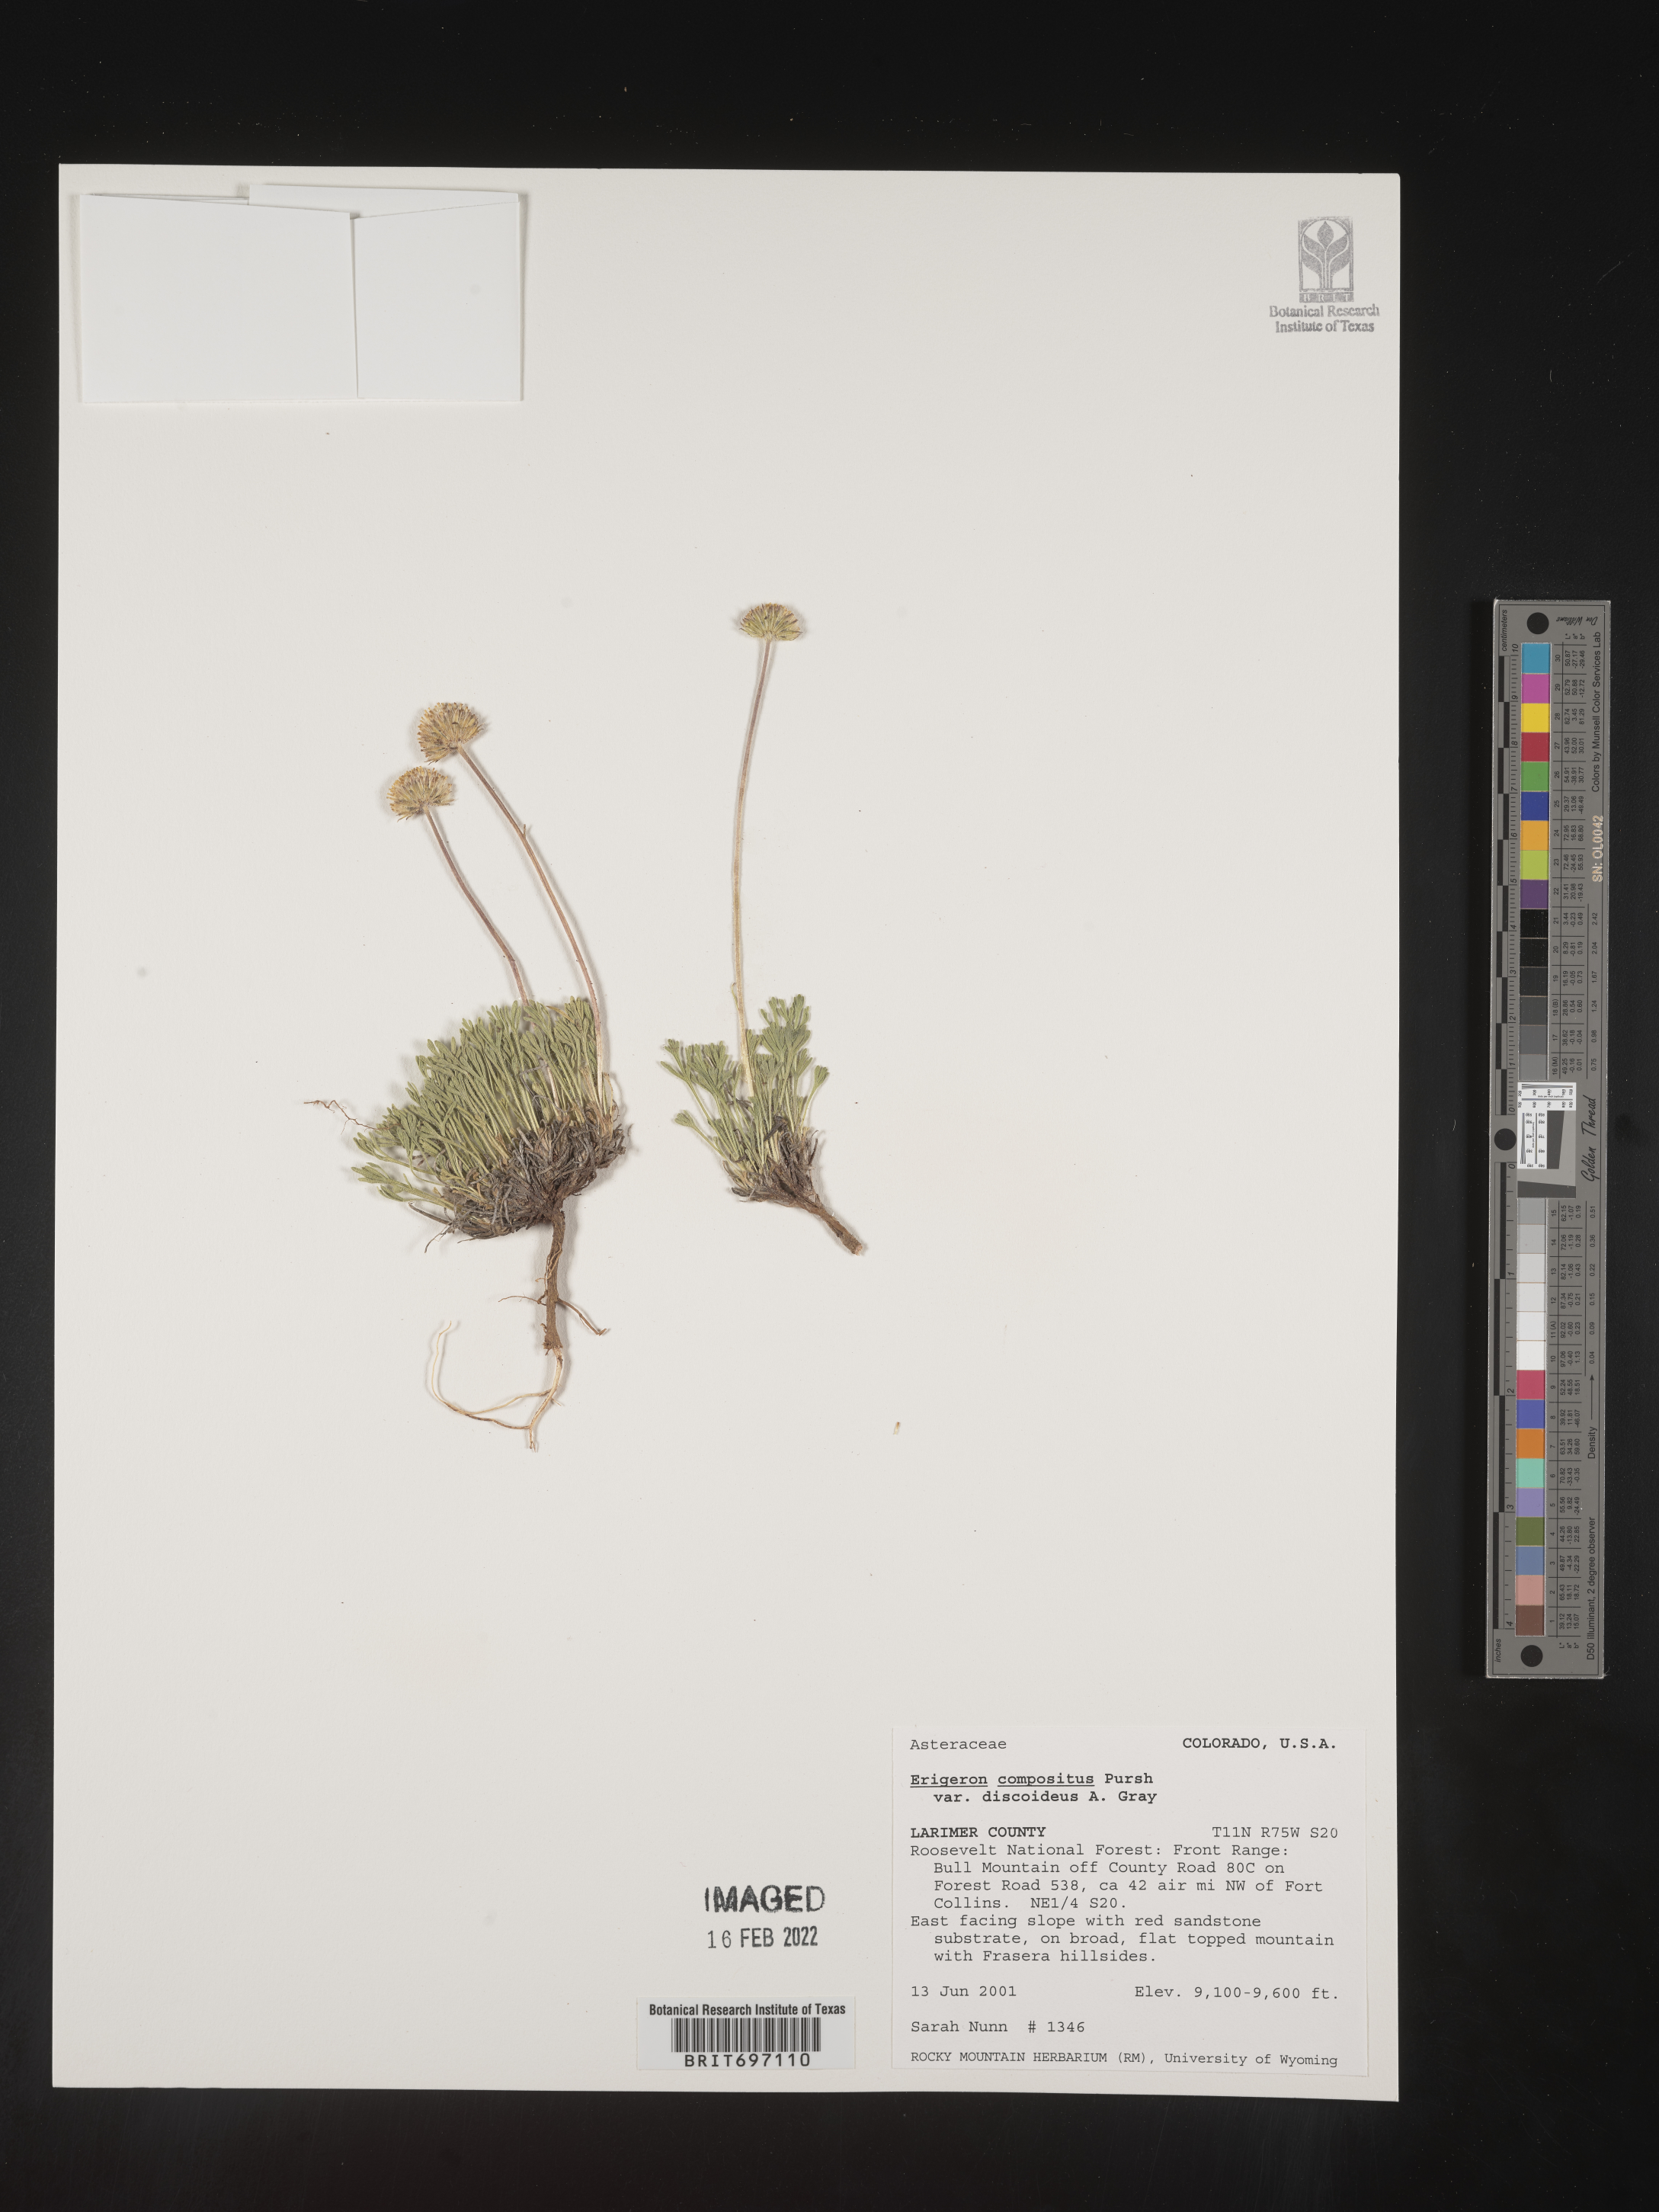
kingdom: Plantae
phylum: Tracheophyta
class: Magnoliopsida
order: Asterales
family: Asteraceae
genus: Erigeron
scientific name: Erigeron compositus
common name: Dwarf mountain fleabane
